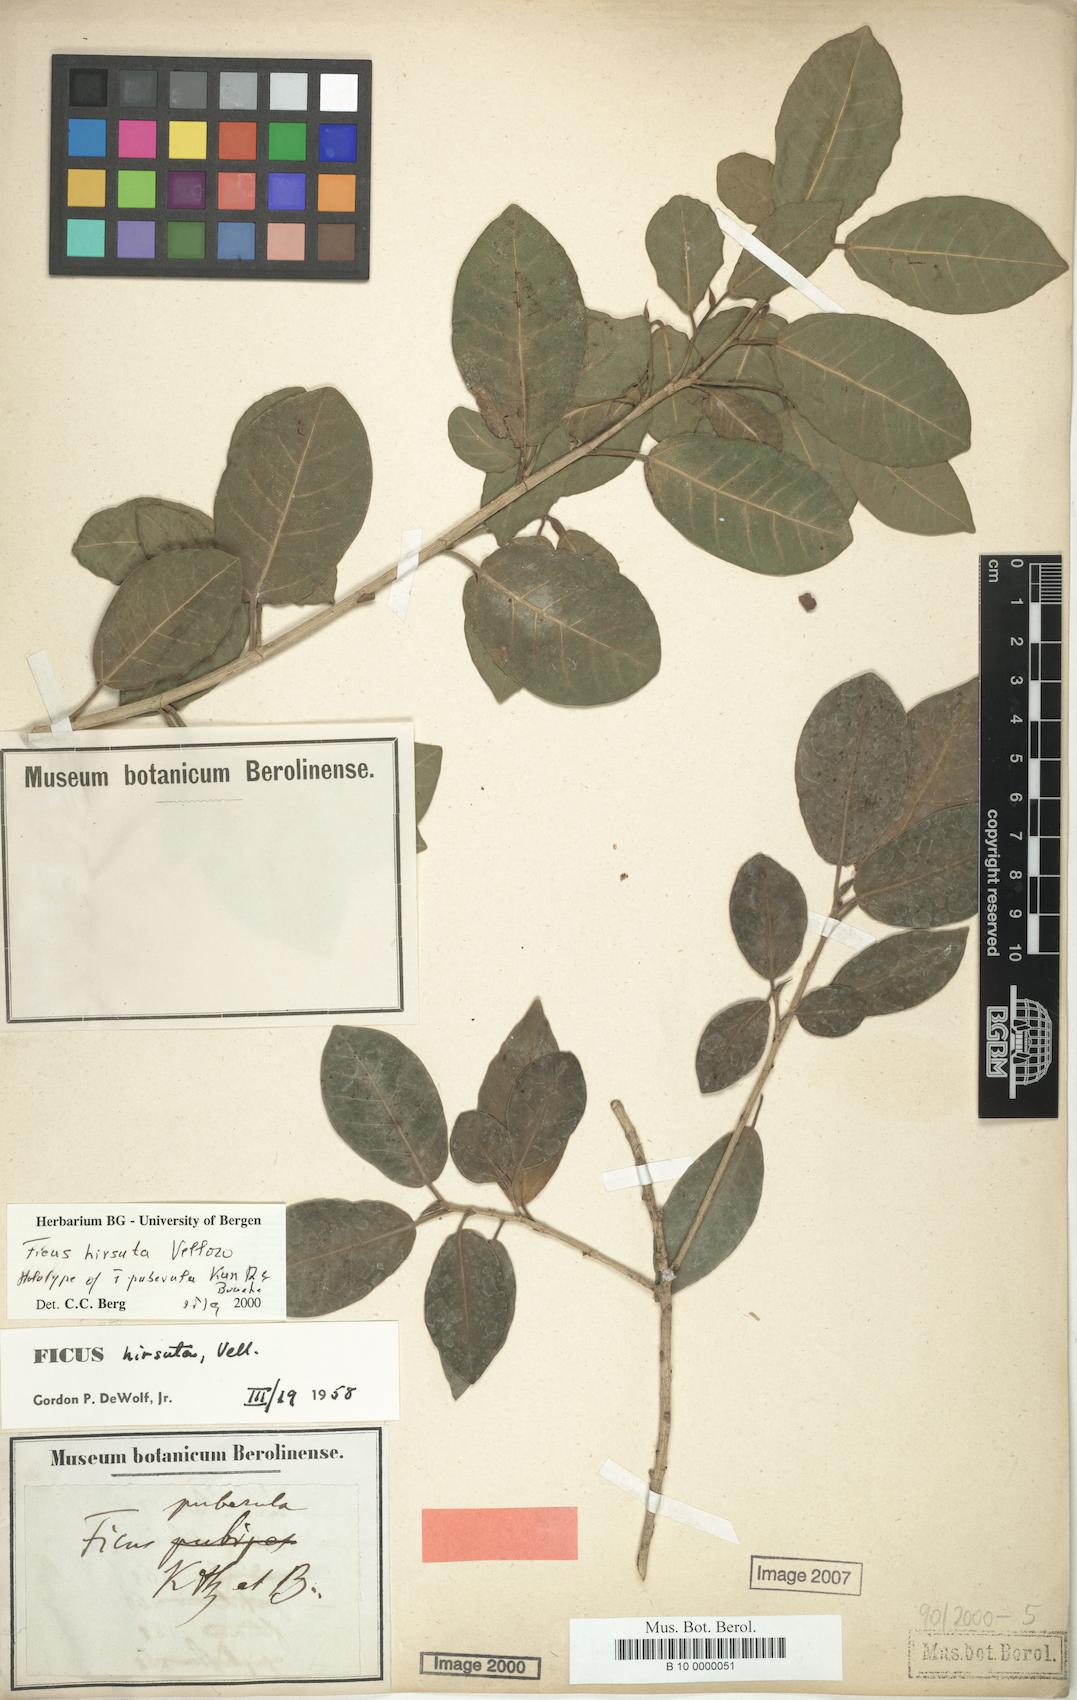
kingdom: Plantae
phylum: Tracheophyta
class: Magnoliopsida
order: Rosales
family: Moraceae
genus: Ficus
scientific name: Ficus hirsuta
